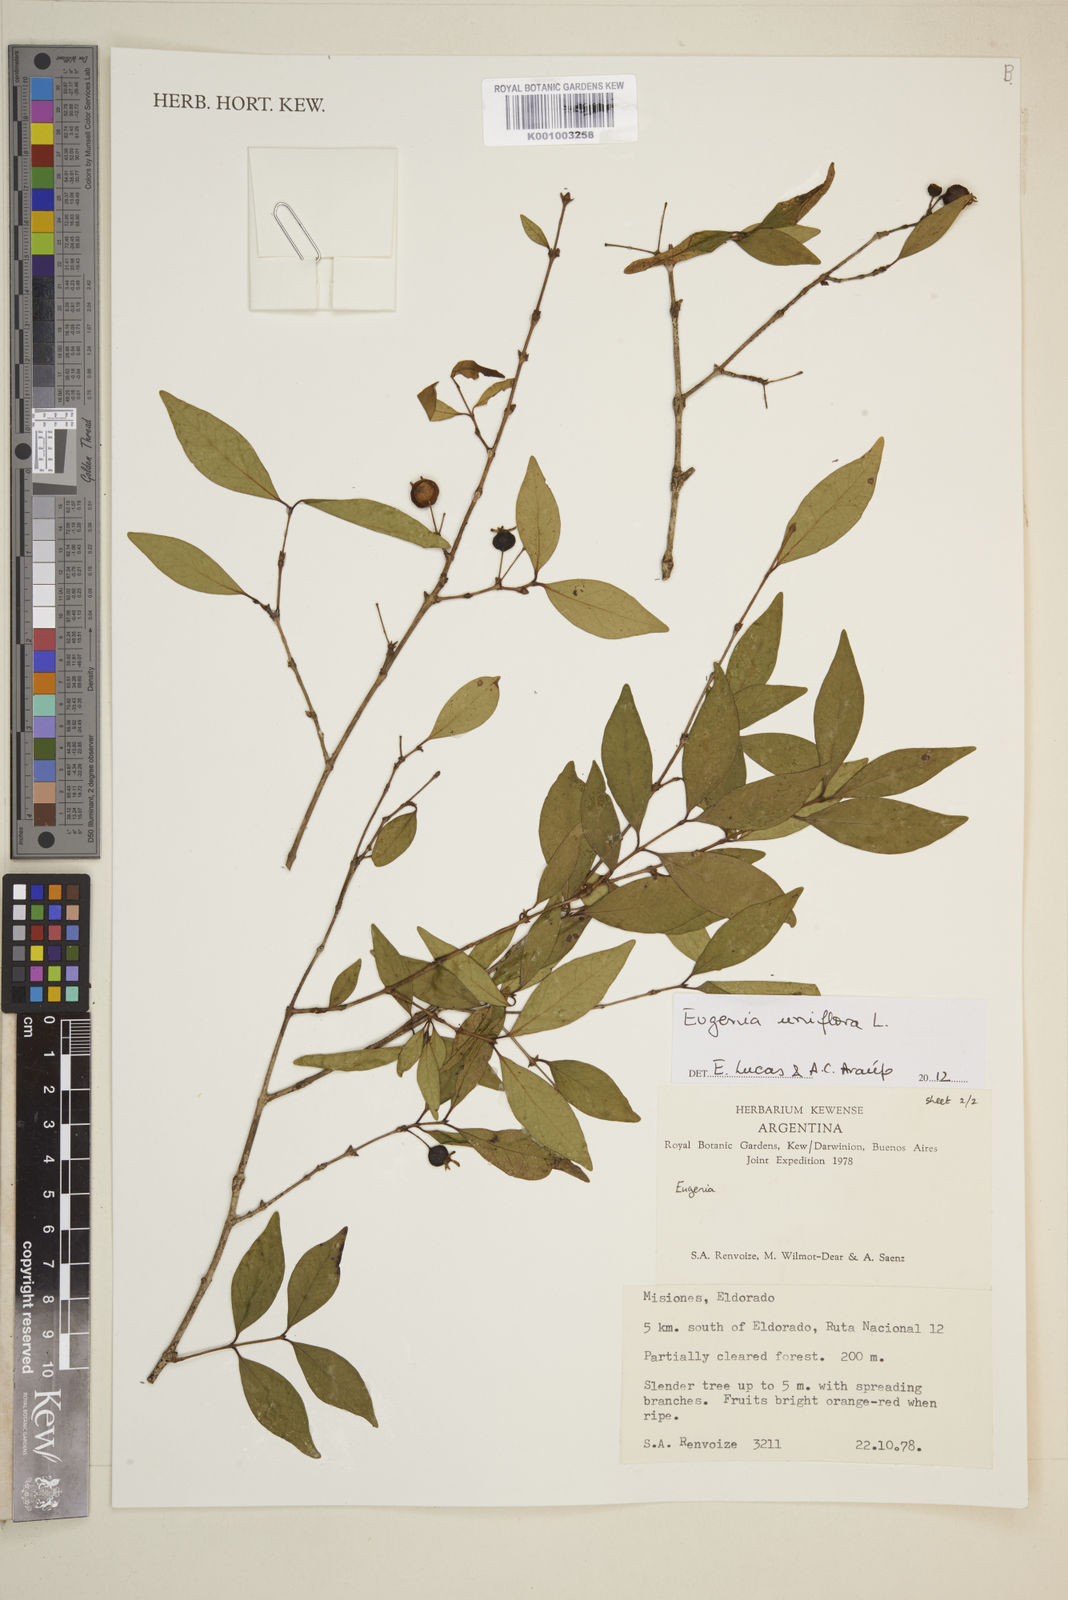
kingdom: Plantae
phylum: Tracheophyta
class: Magnoliopsida
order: Myrtales
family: Myrtaceae
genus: Eugenia
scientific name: Eugenia uniflora
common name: Surinam cherry
